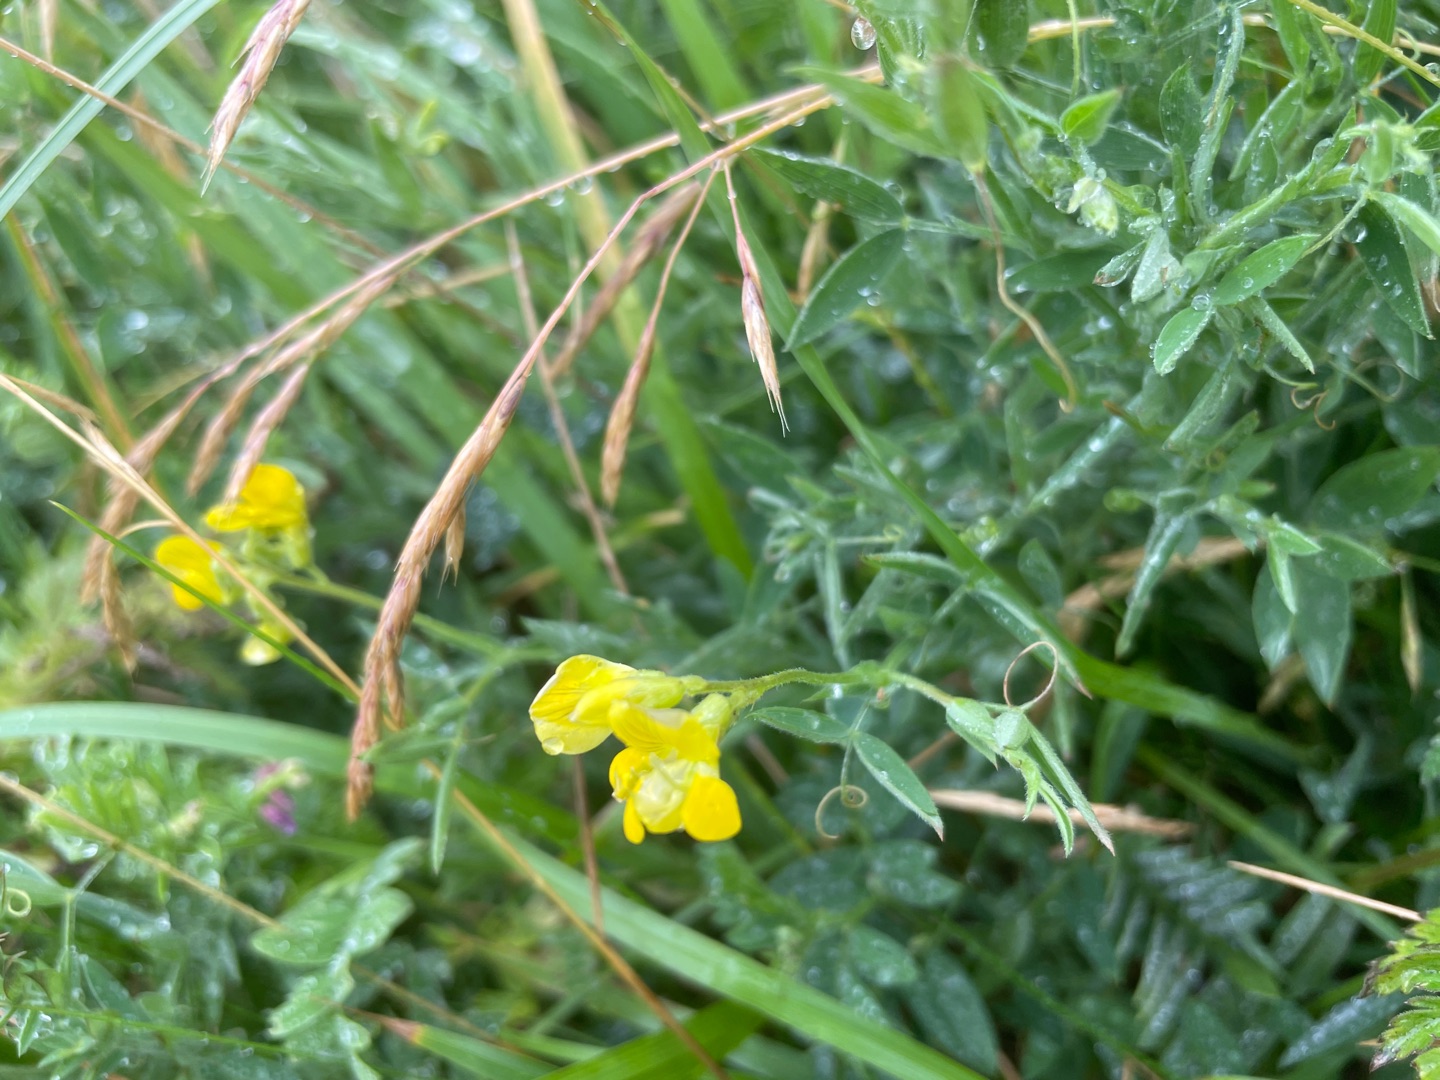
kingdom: Plantae
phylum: Tracheophyta
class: Magnoliopsida
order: Fabales
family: Fabaceae
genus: Lathyrus
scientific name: Lathyrus pratensis
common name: Gul fladbælg
